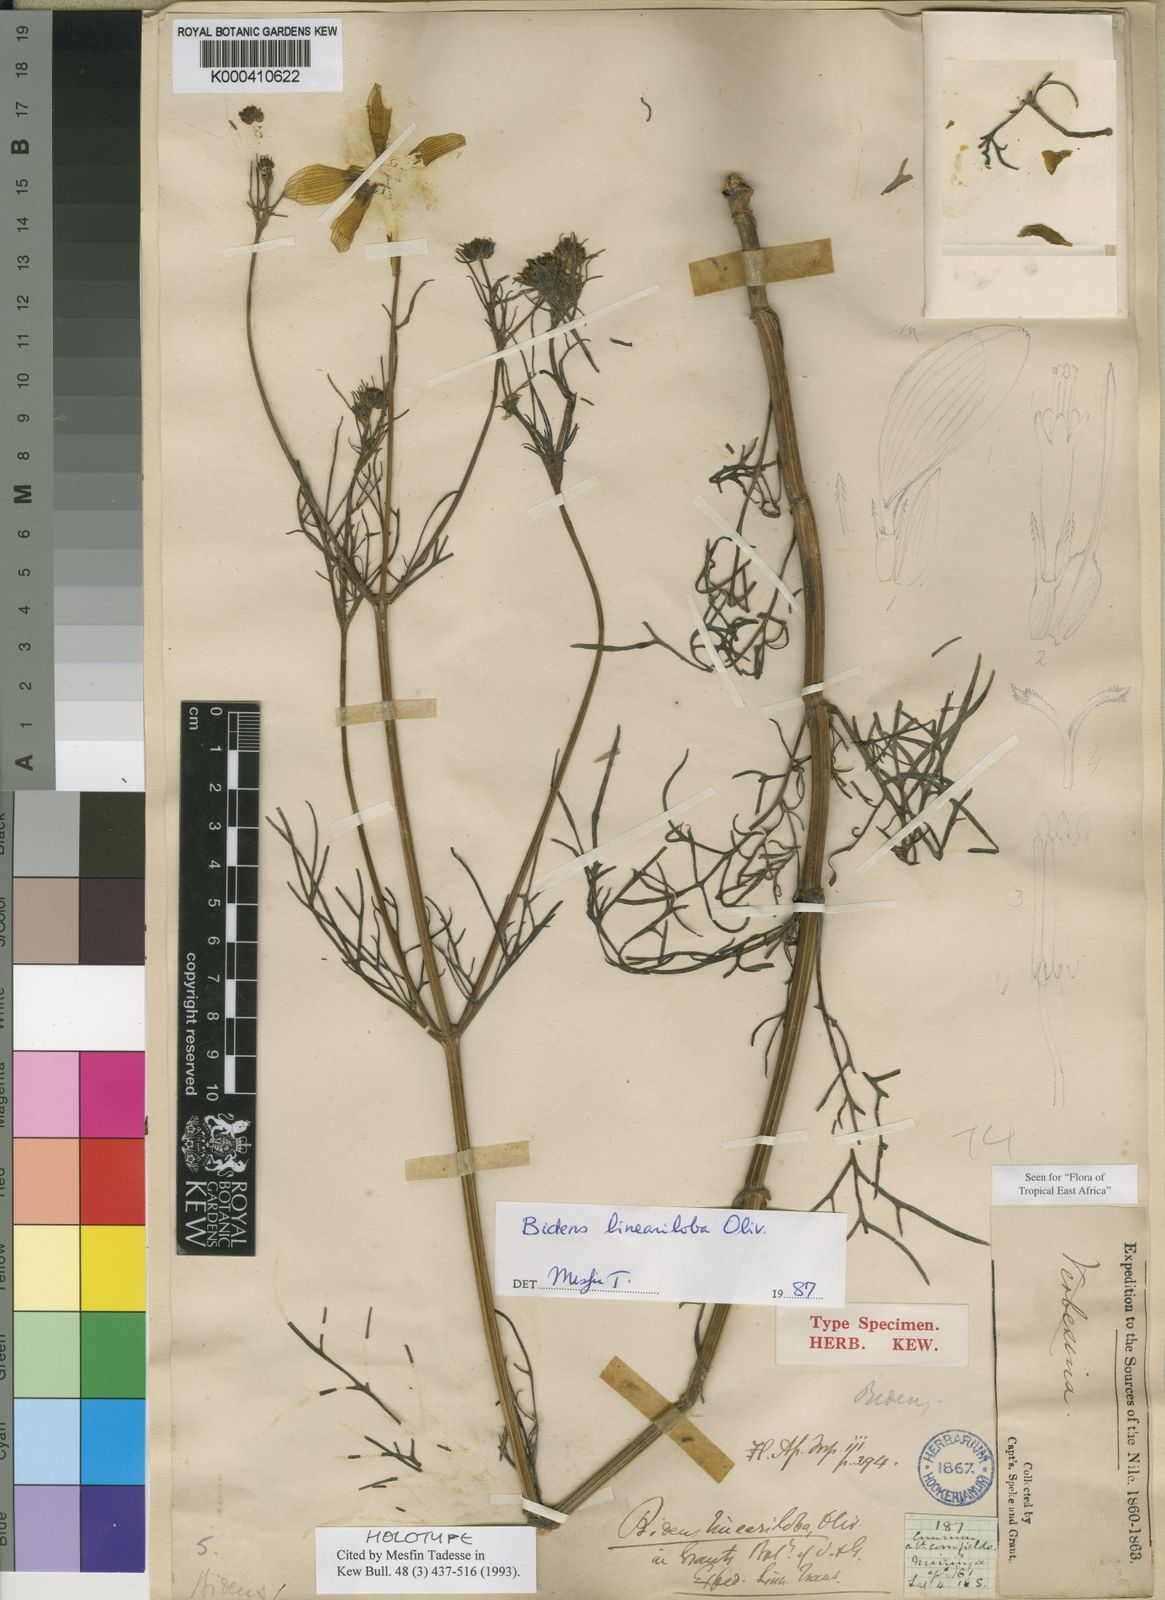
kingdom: Plantae
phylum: Tracheophyta
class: Magnoliopsida
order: Asterales
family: Asteraceae
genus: Bidens
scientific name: Bidens lineariloba
